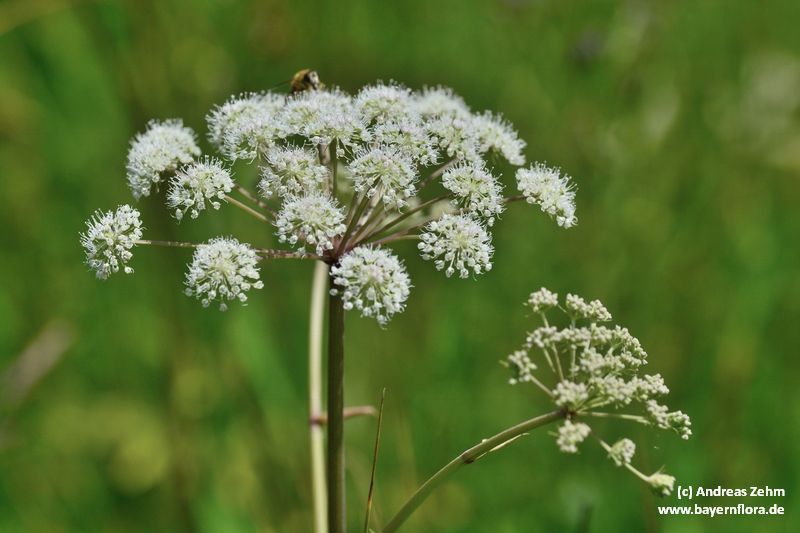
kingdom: Plantae
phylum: Tracheophyta
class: Magnoliopsida
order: Apiales
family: Apiaceae
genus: Angelica
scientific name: Angelica sylvestris
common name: Wild angelica
